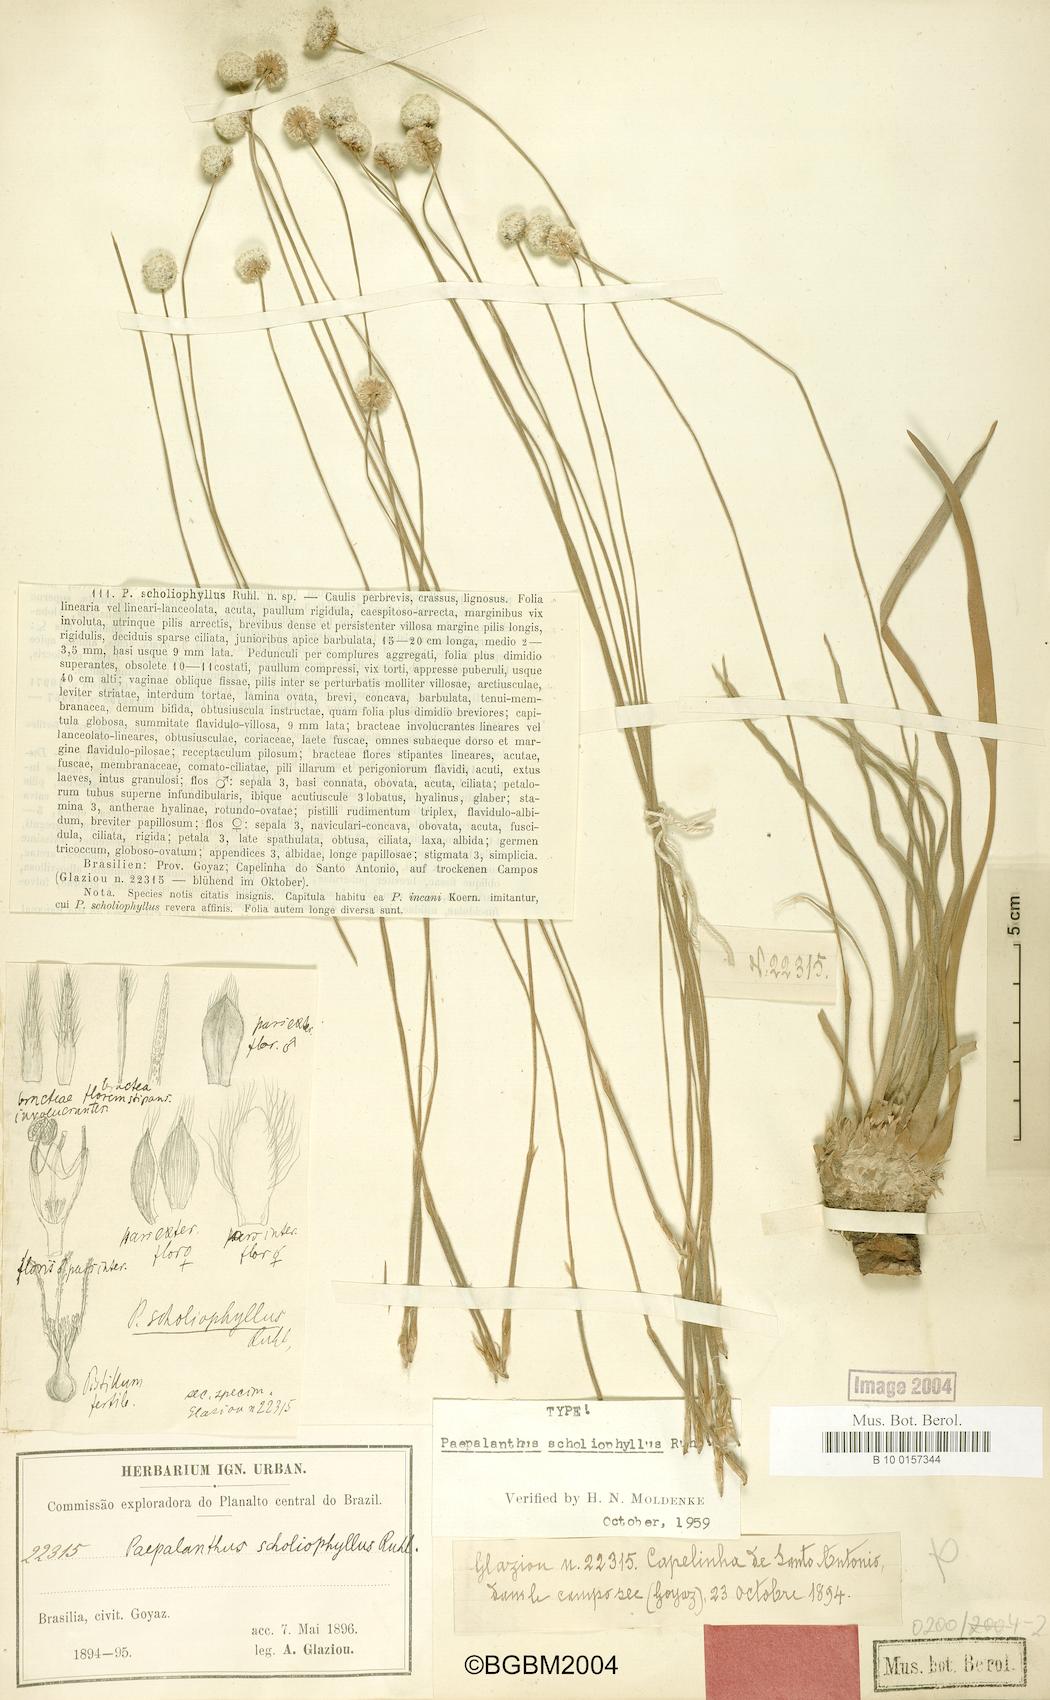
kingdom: Plantae
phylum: Tracheophyta
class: Liliopsida
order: Poales
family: Eriocaulaceae
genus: Paepalanthus
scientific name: Paepalanthus scholiophyllus
